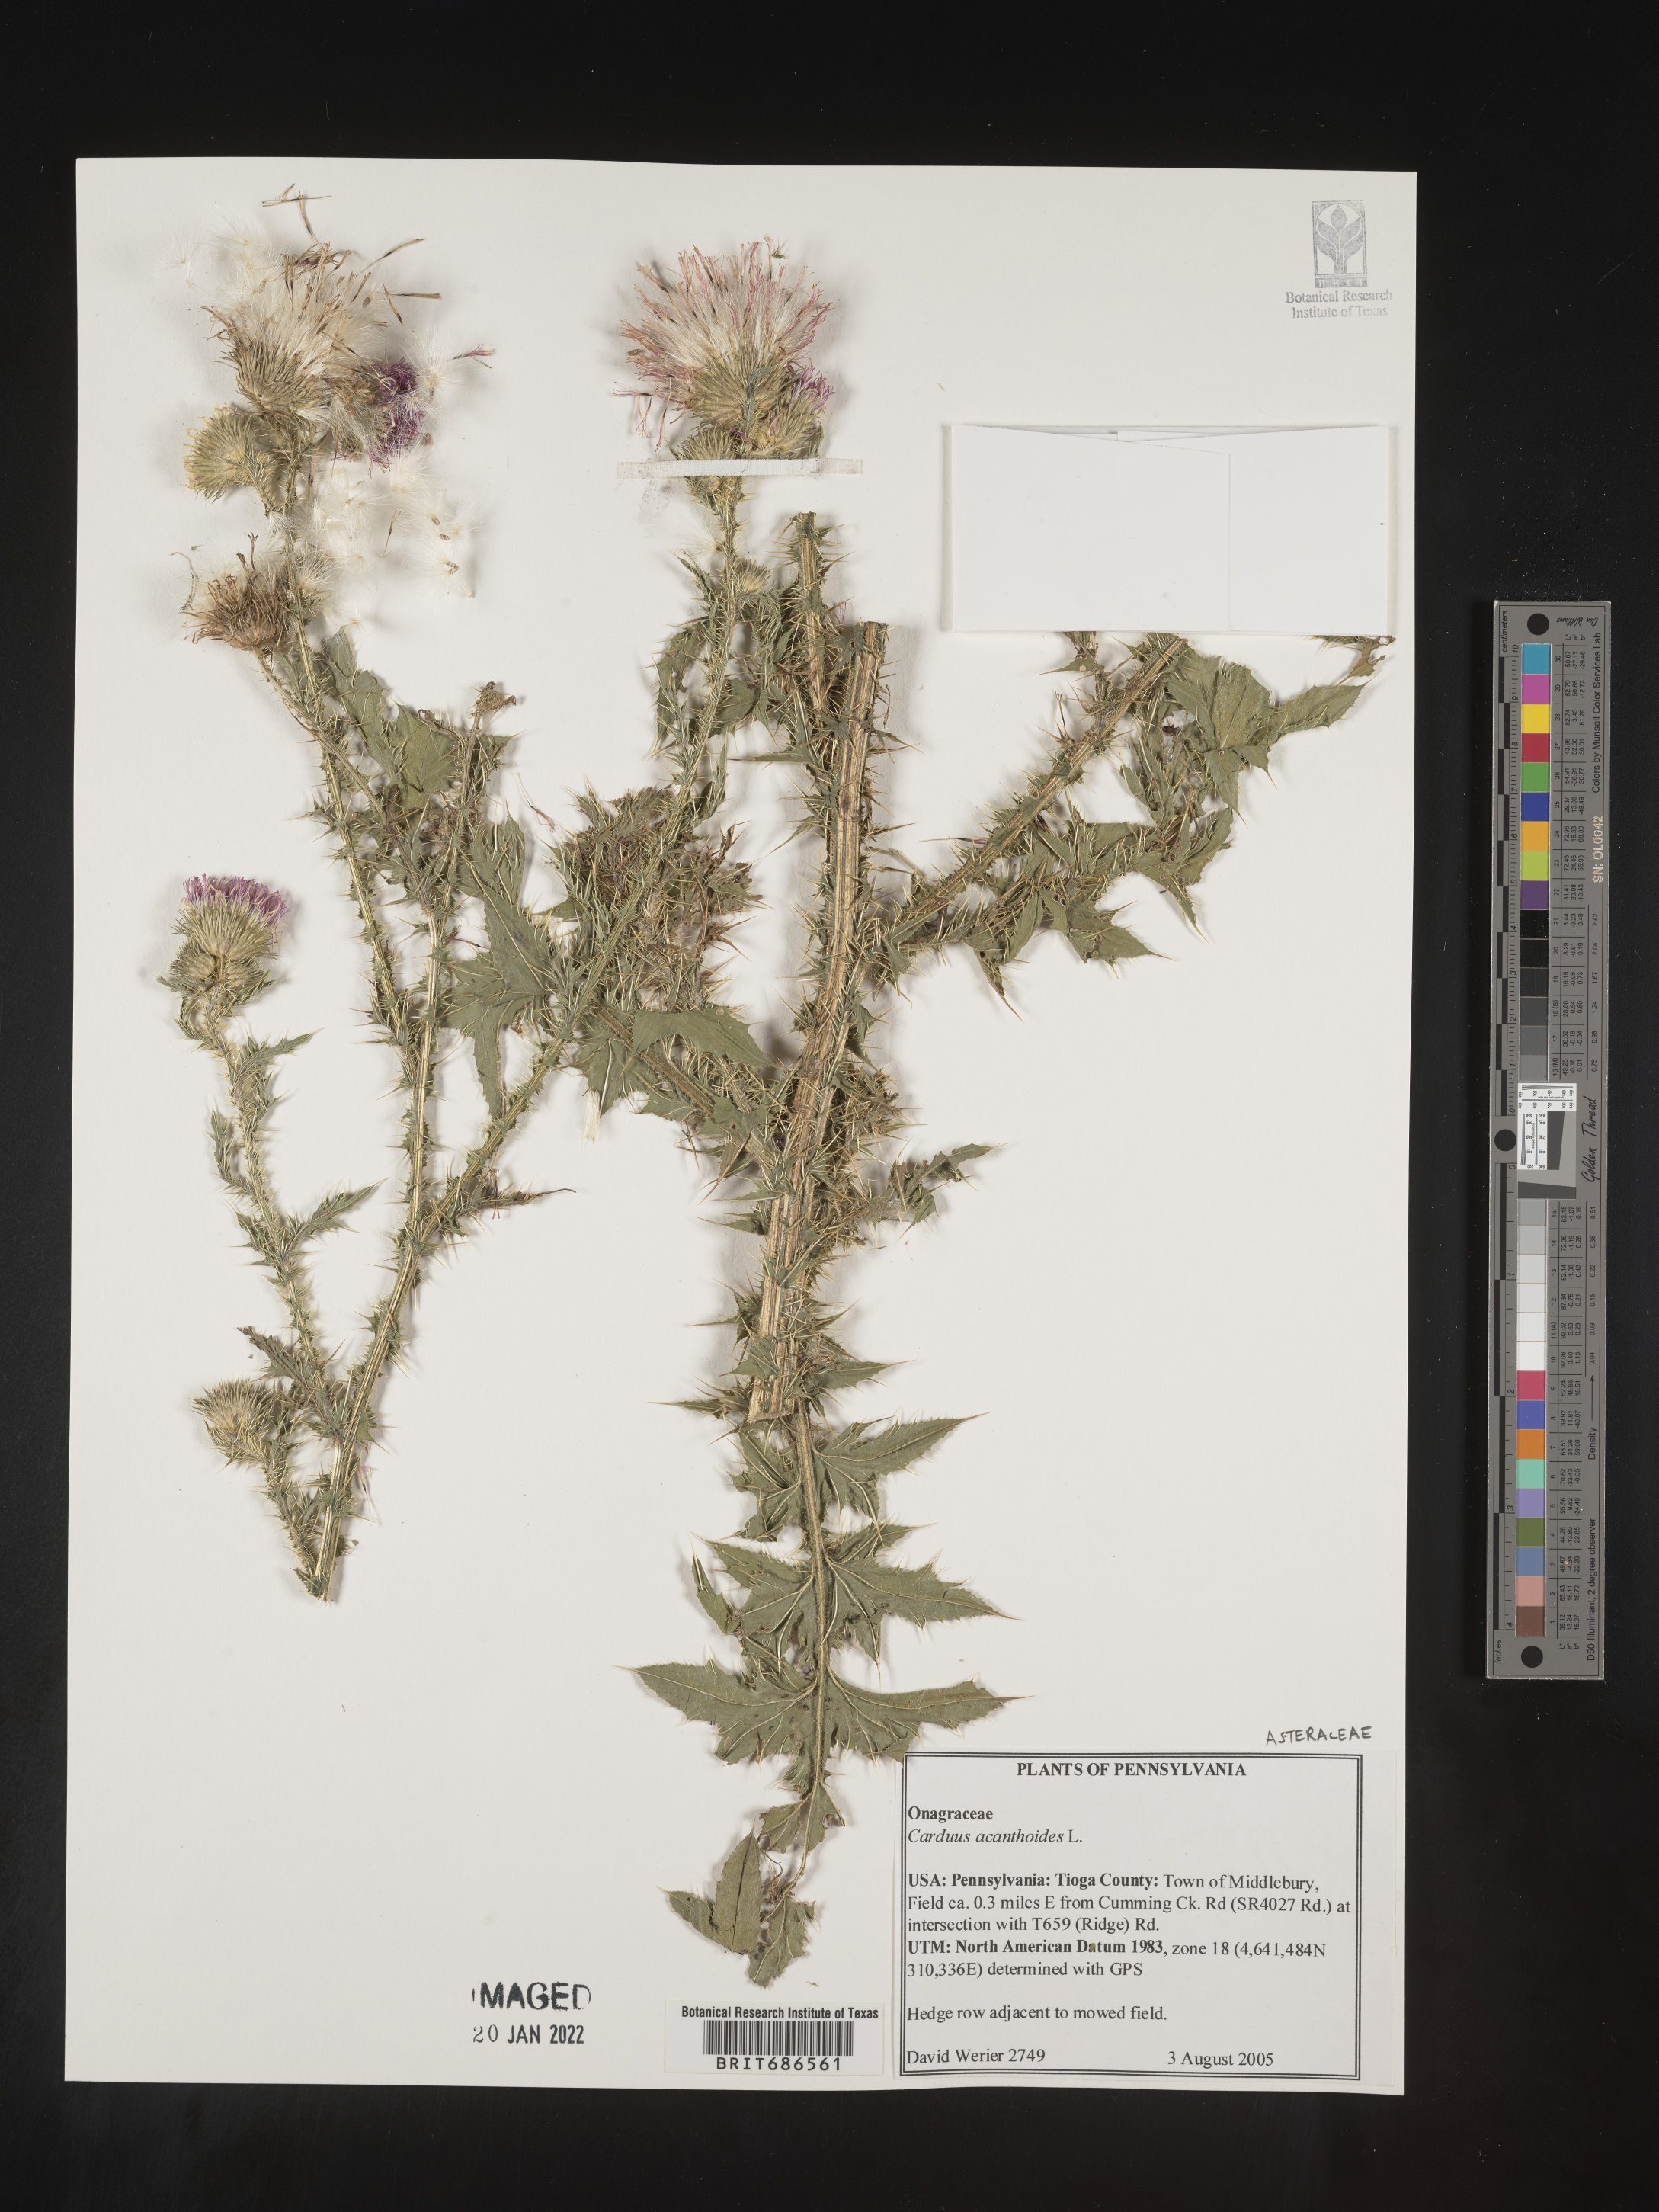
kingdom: Plantae
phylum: Tracheophyta
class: Magnoliopsida
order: Asterales
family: Asteraceae
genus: Carduus
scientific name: Carduus acanthoides
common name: Plumeless thistle
